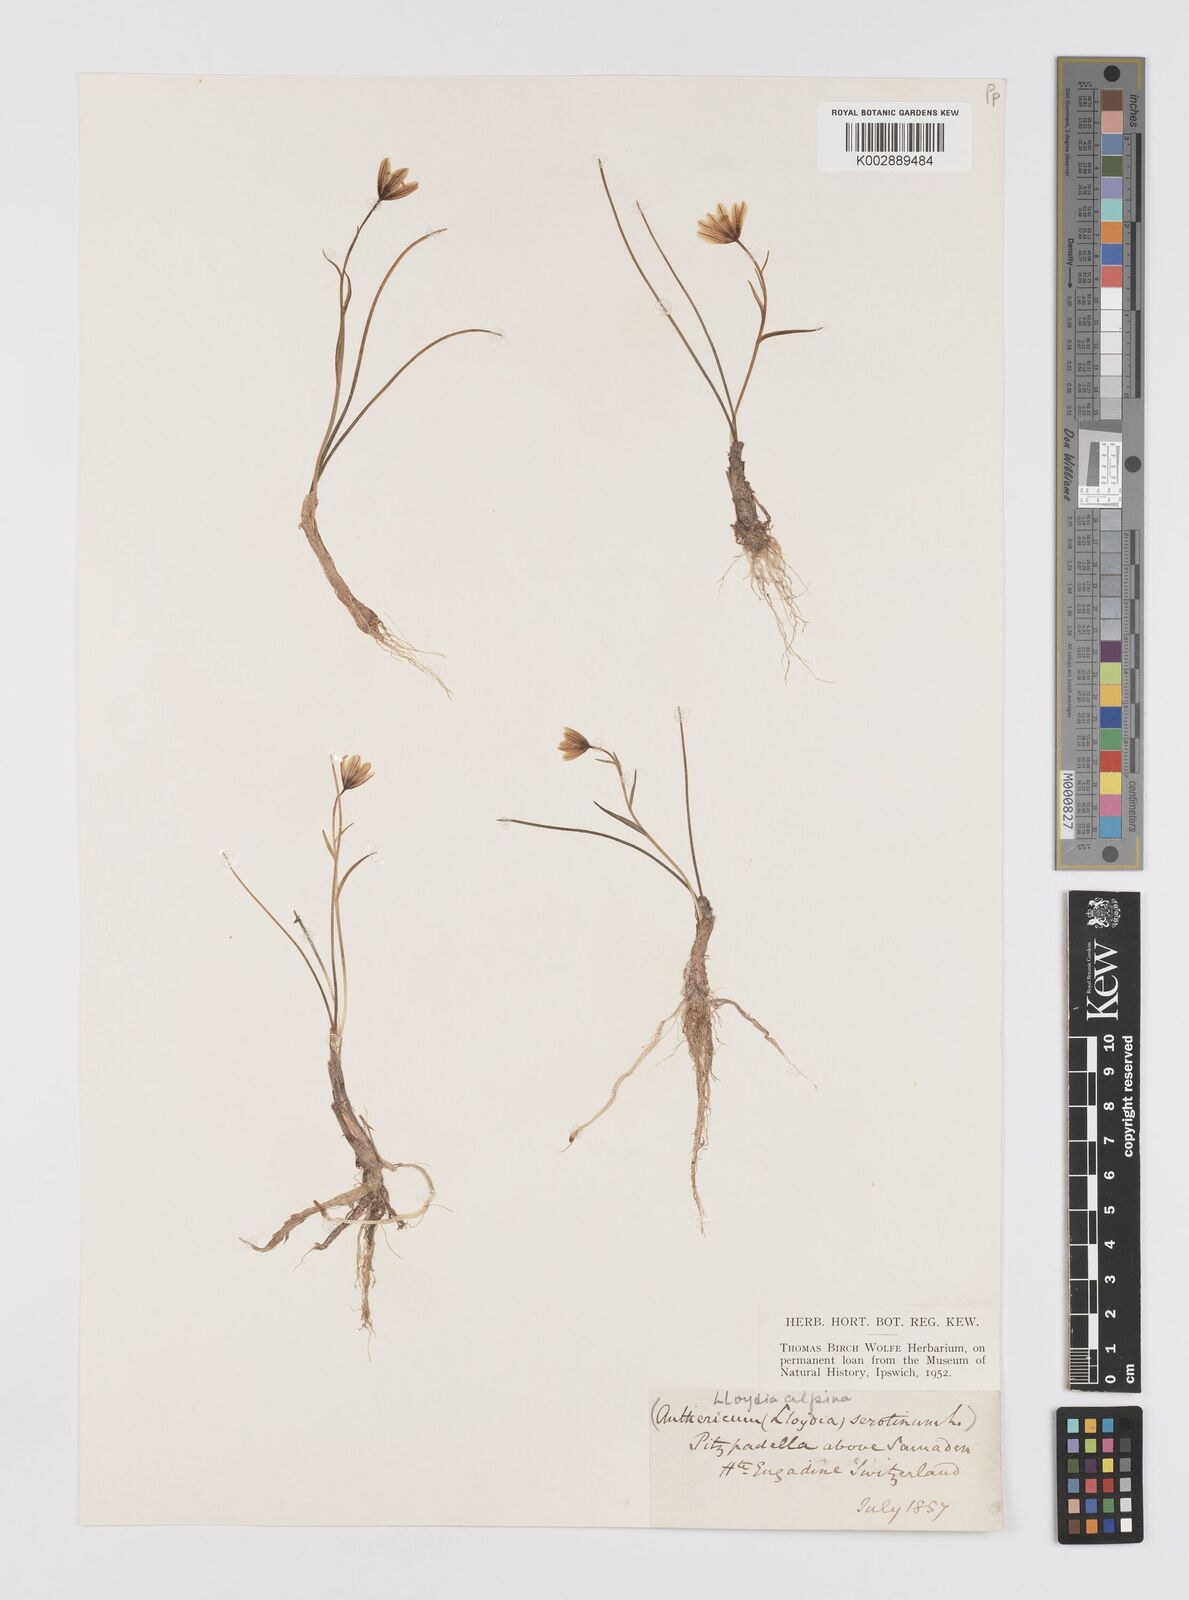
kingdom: Plantae
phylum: Tracheophyta
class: Liliopsida
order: Liliales
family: Liliaceae
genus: Gagea
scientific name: Gagea
